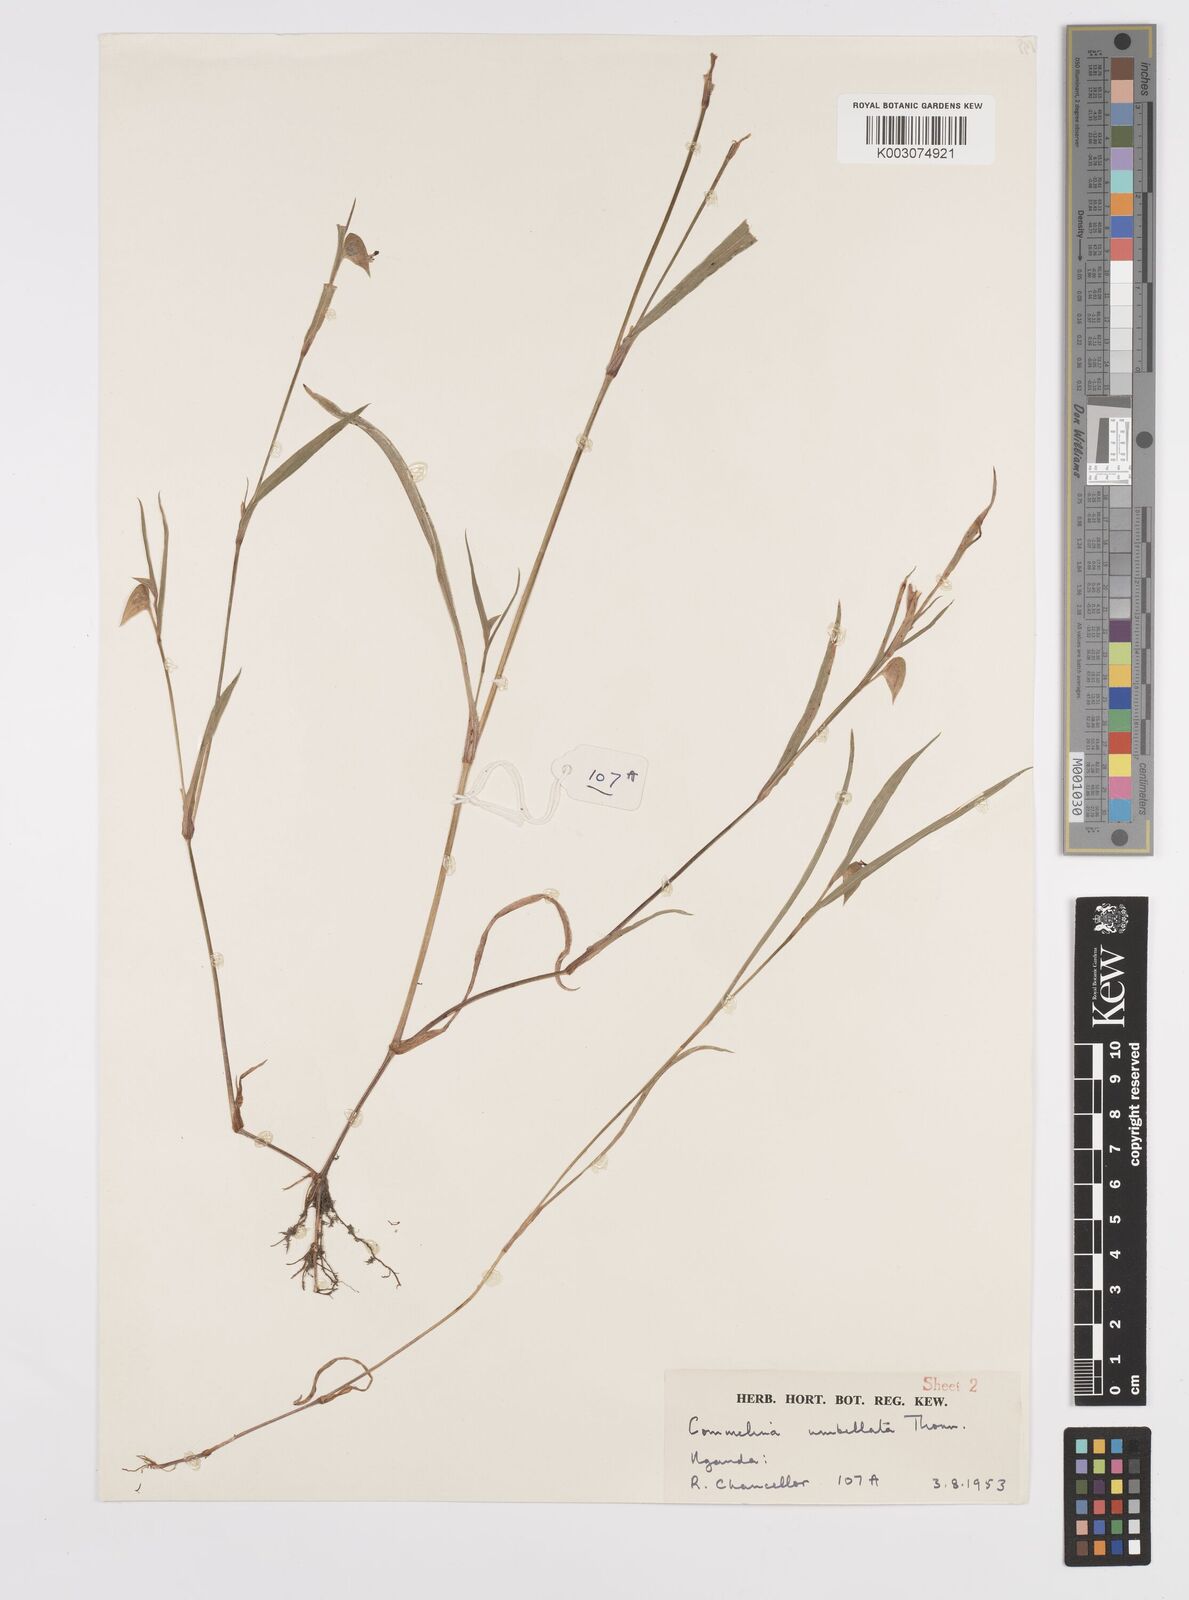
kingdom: Plantae
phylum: Tracheophyta
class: Liliopsida
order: Commelinales
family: Commelinaceae
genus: Commelina
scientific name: Commelina nigritana
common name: African dayflower
